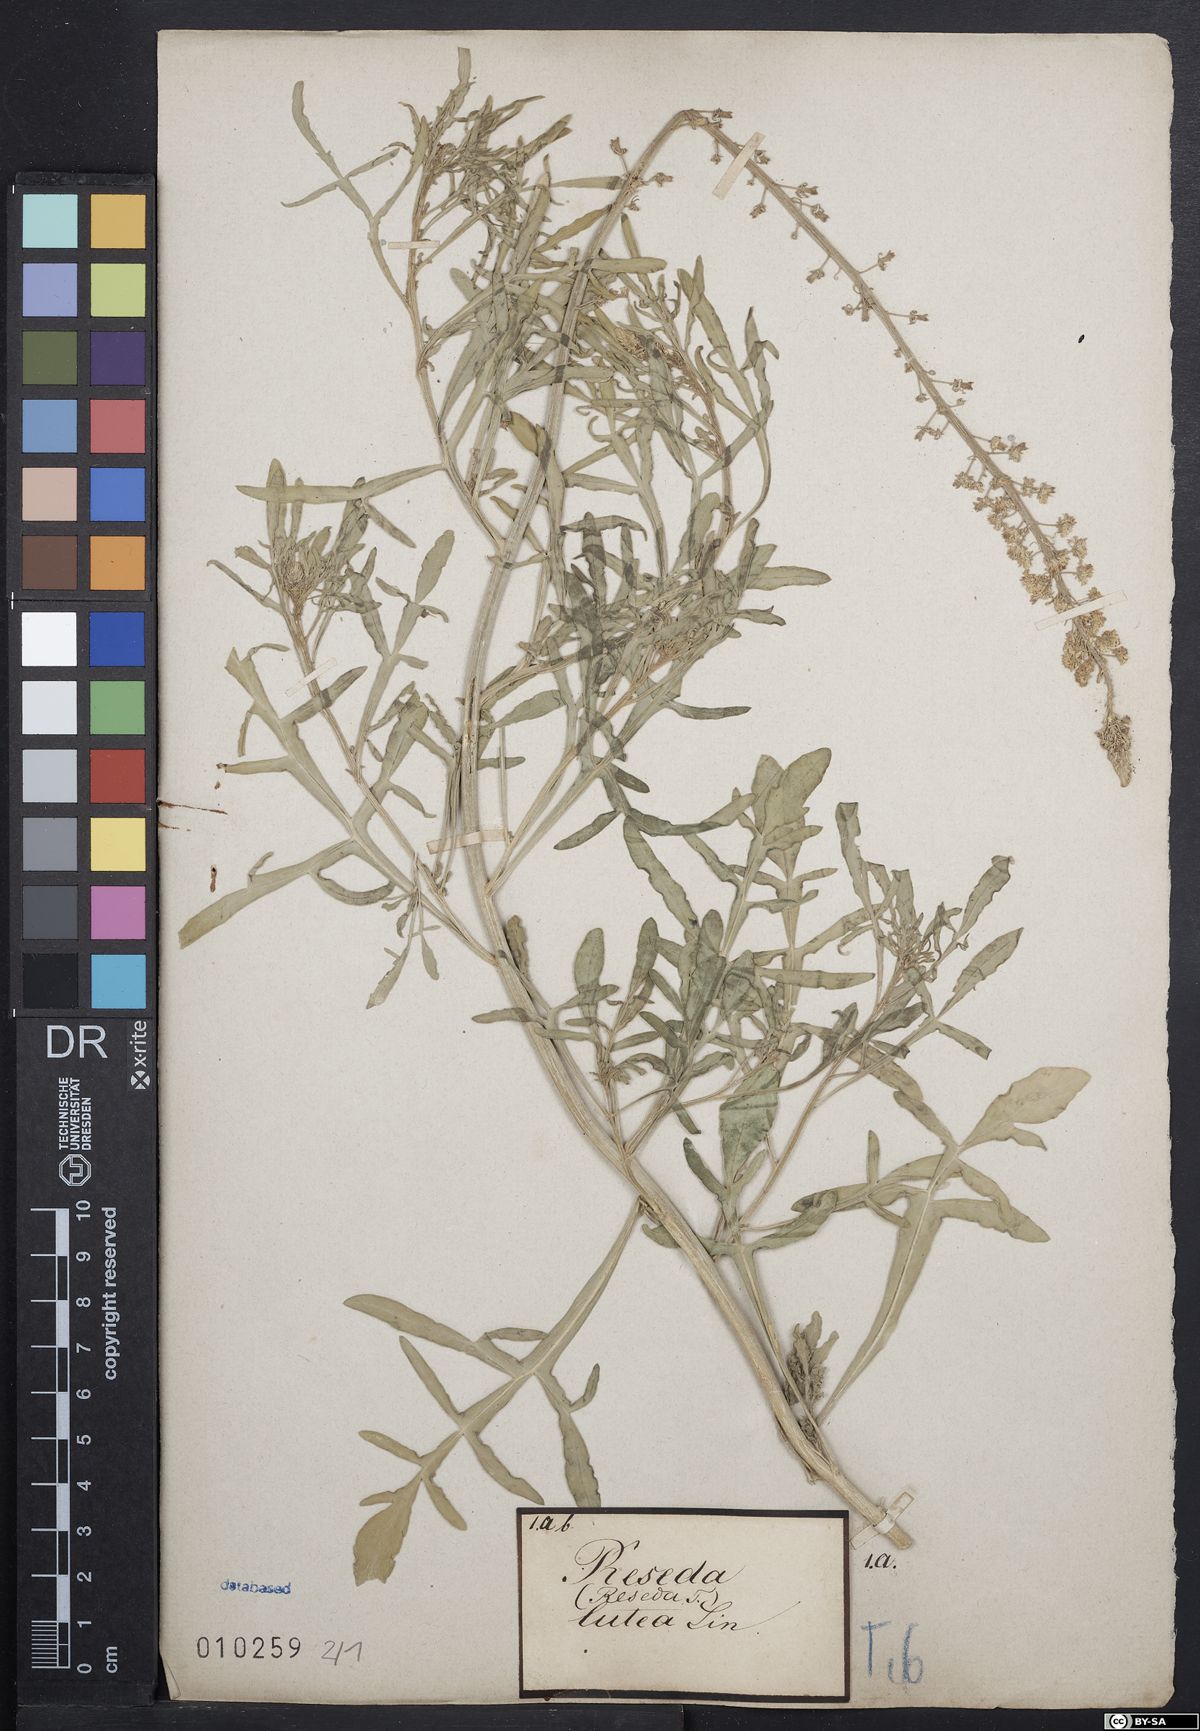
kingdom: Plantae
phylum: Tracheophyta
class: Magnoliopsida
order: Brassicales
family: Resedaceae
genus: Reseda
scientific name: Reseda lutea
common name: Wild mignonette
